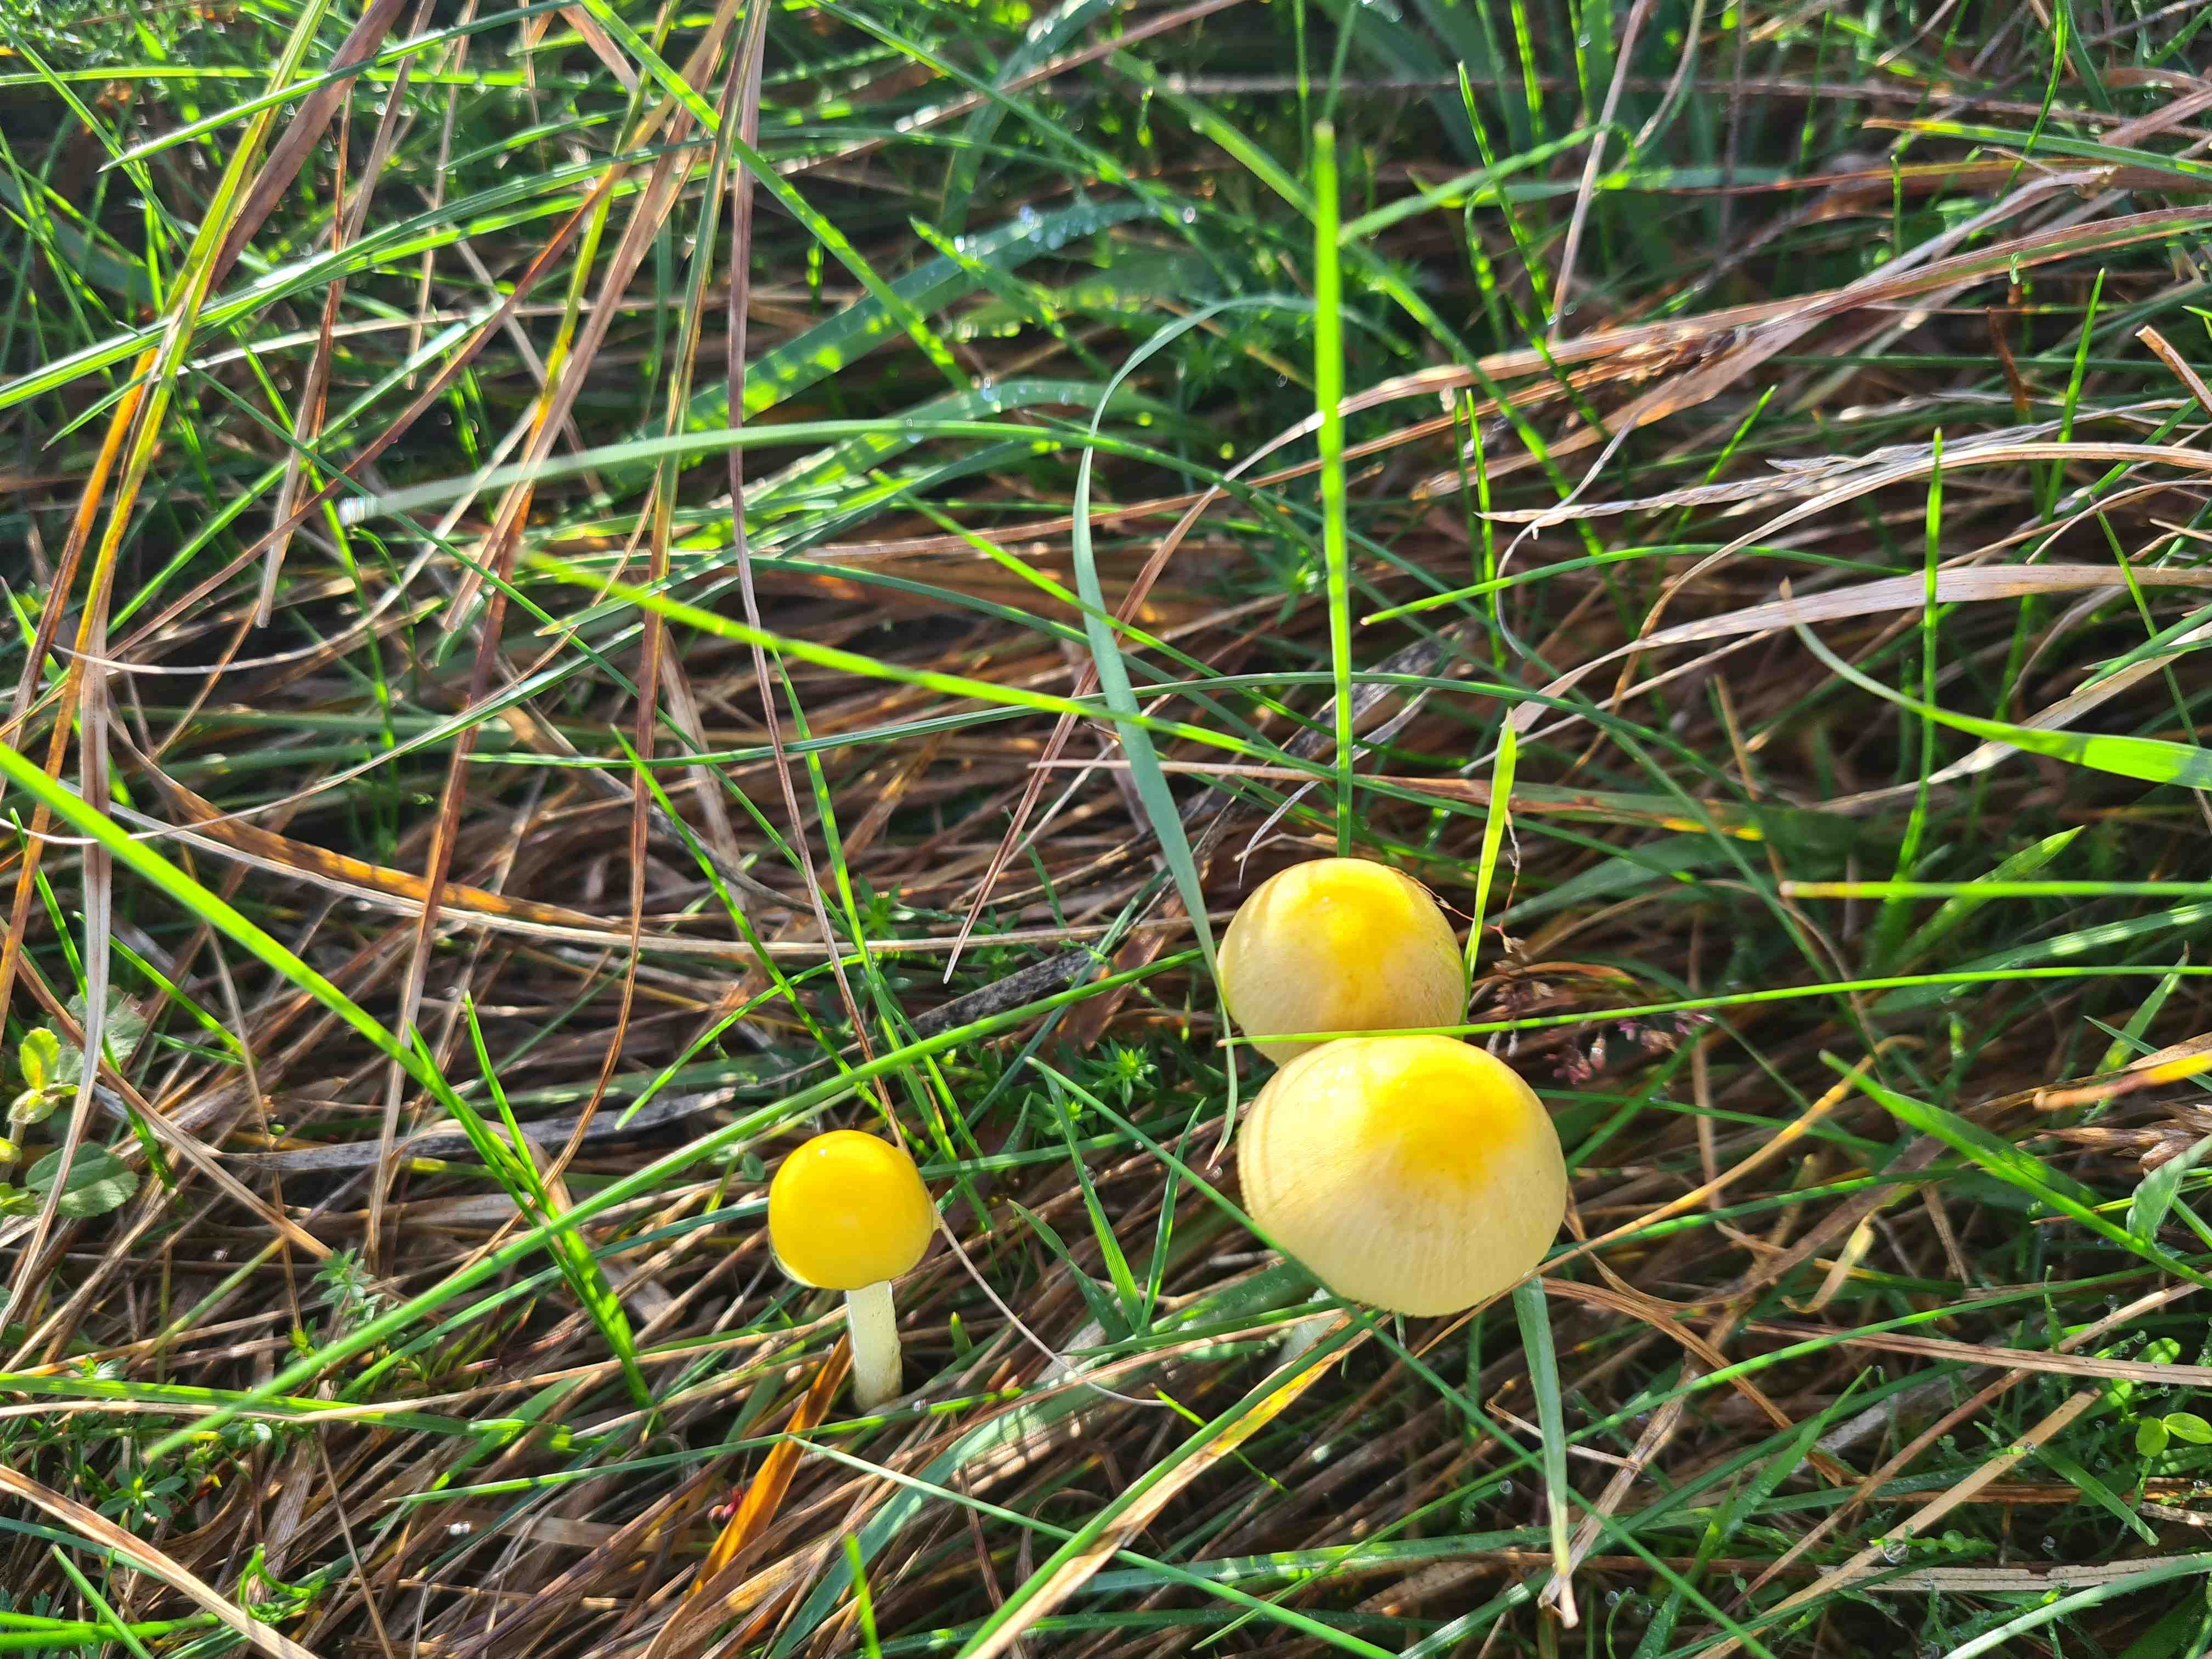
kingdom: Fungi
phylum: Basidiomycota
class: Agaricomycetes
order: Agaricales
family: Bolbitiaceae
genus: Bolbitius
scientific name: Bolbitius titubans
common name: almindelig gulhat
